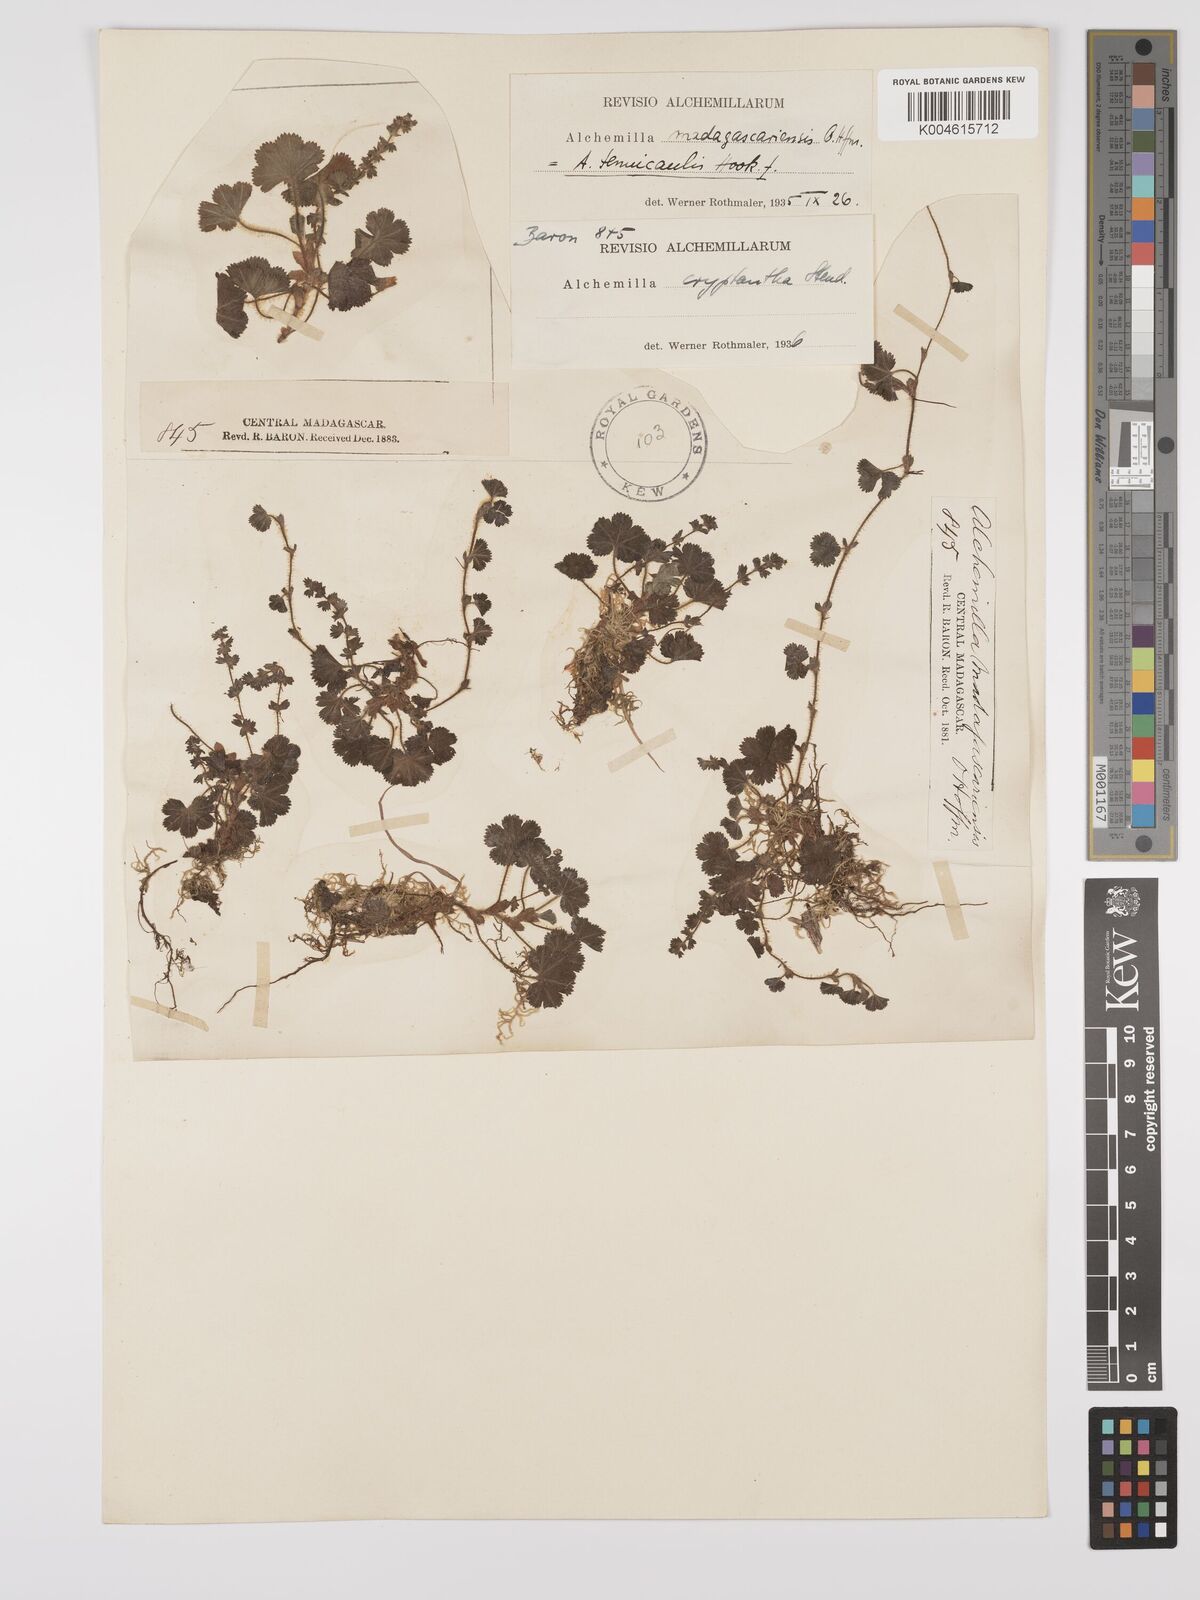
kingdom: Plantae
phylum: Tracheophyta
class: Magnoliopsida
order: Rosales
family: Rosaceae
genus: Alchemilla
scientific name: Alchemilla cryptantha
